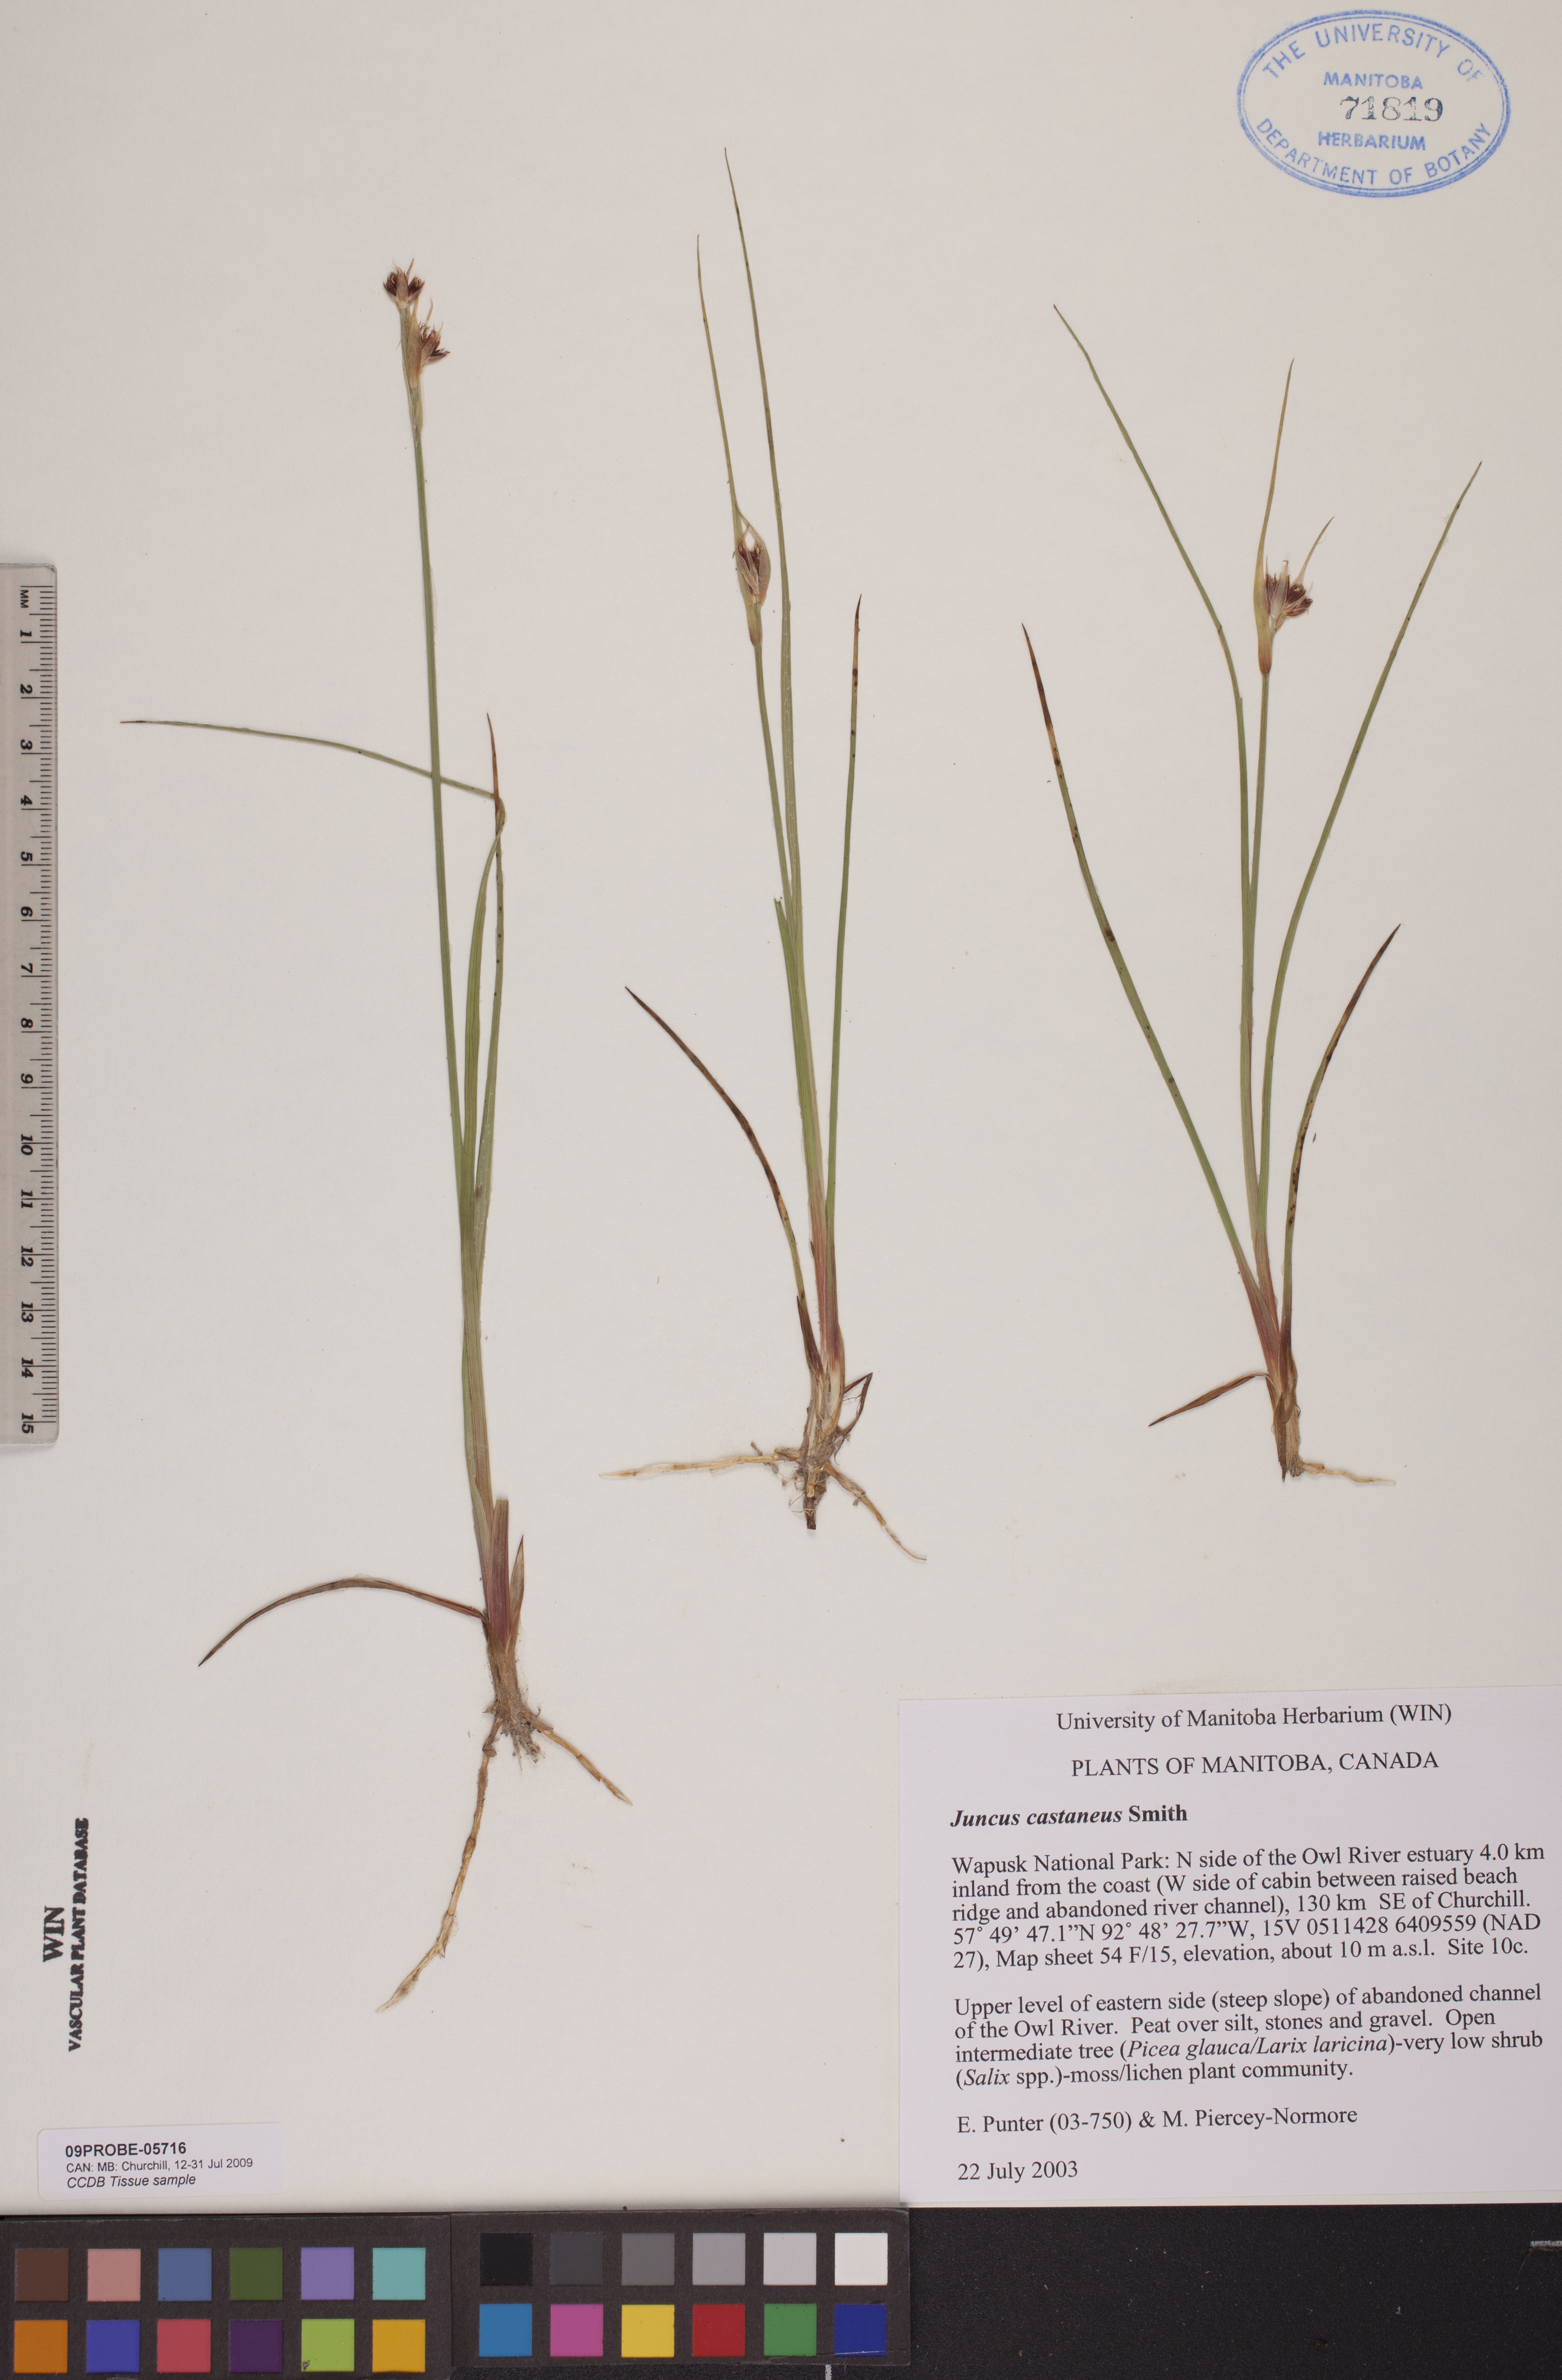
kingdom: Plantae
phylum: Tracheophyta
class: Liliopsida
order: Poales
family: Juncaceae
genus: Juncus
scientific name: Juncus castaneus
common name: Chestnut rush
